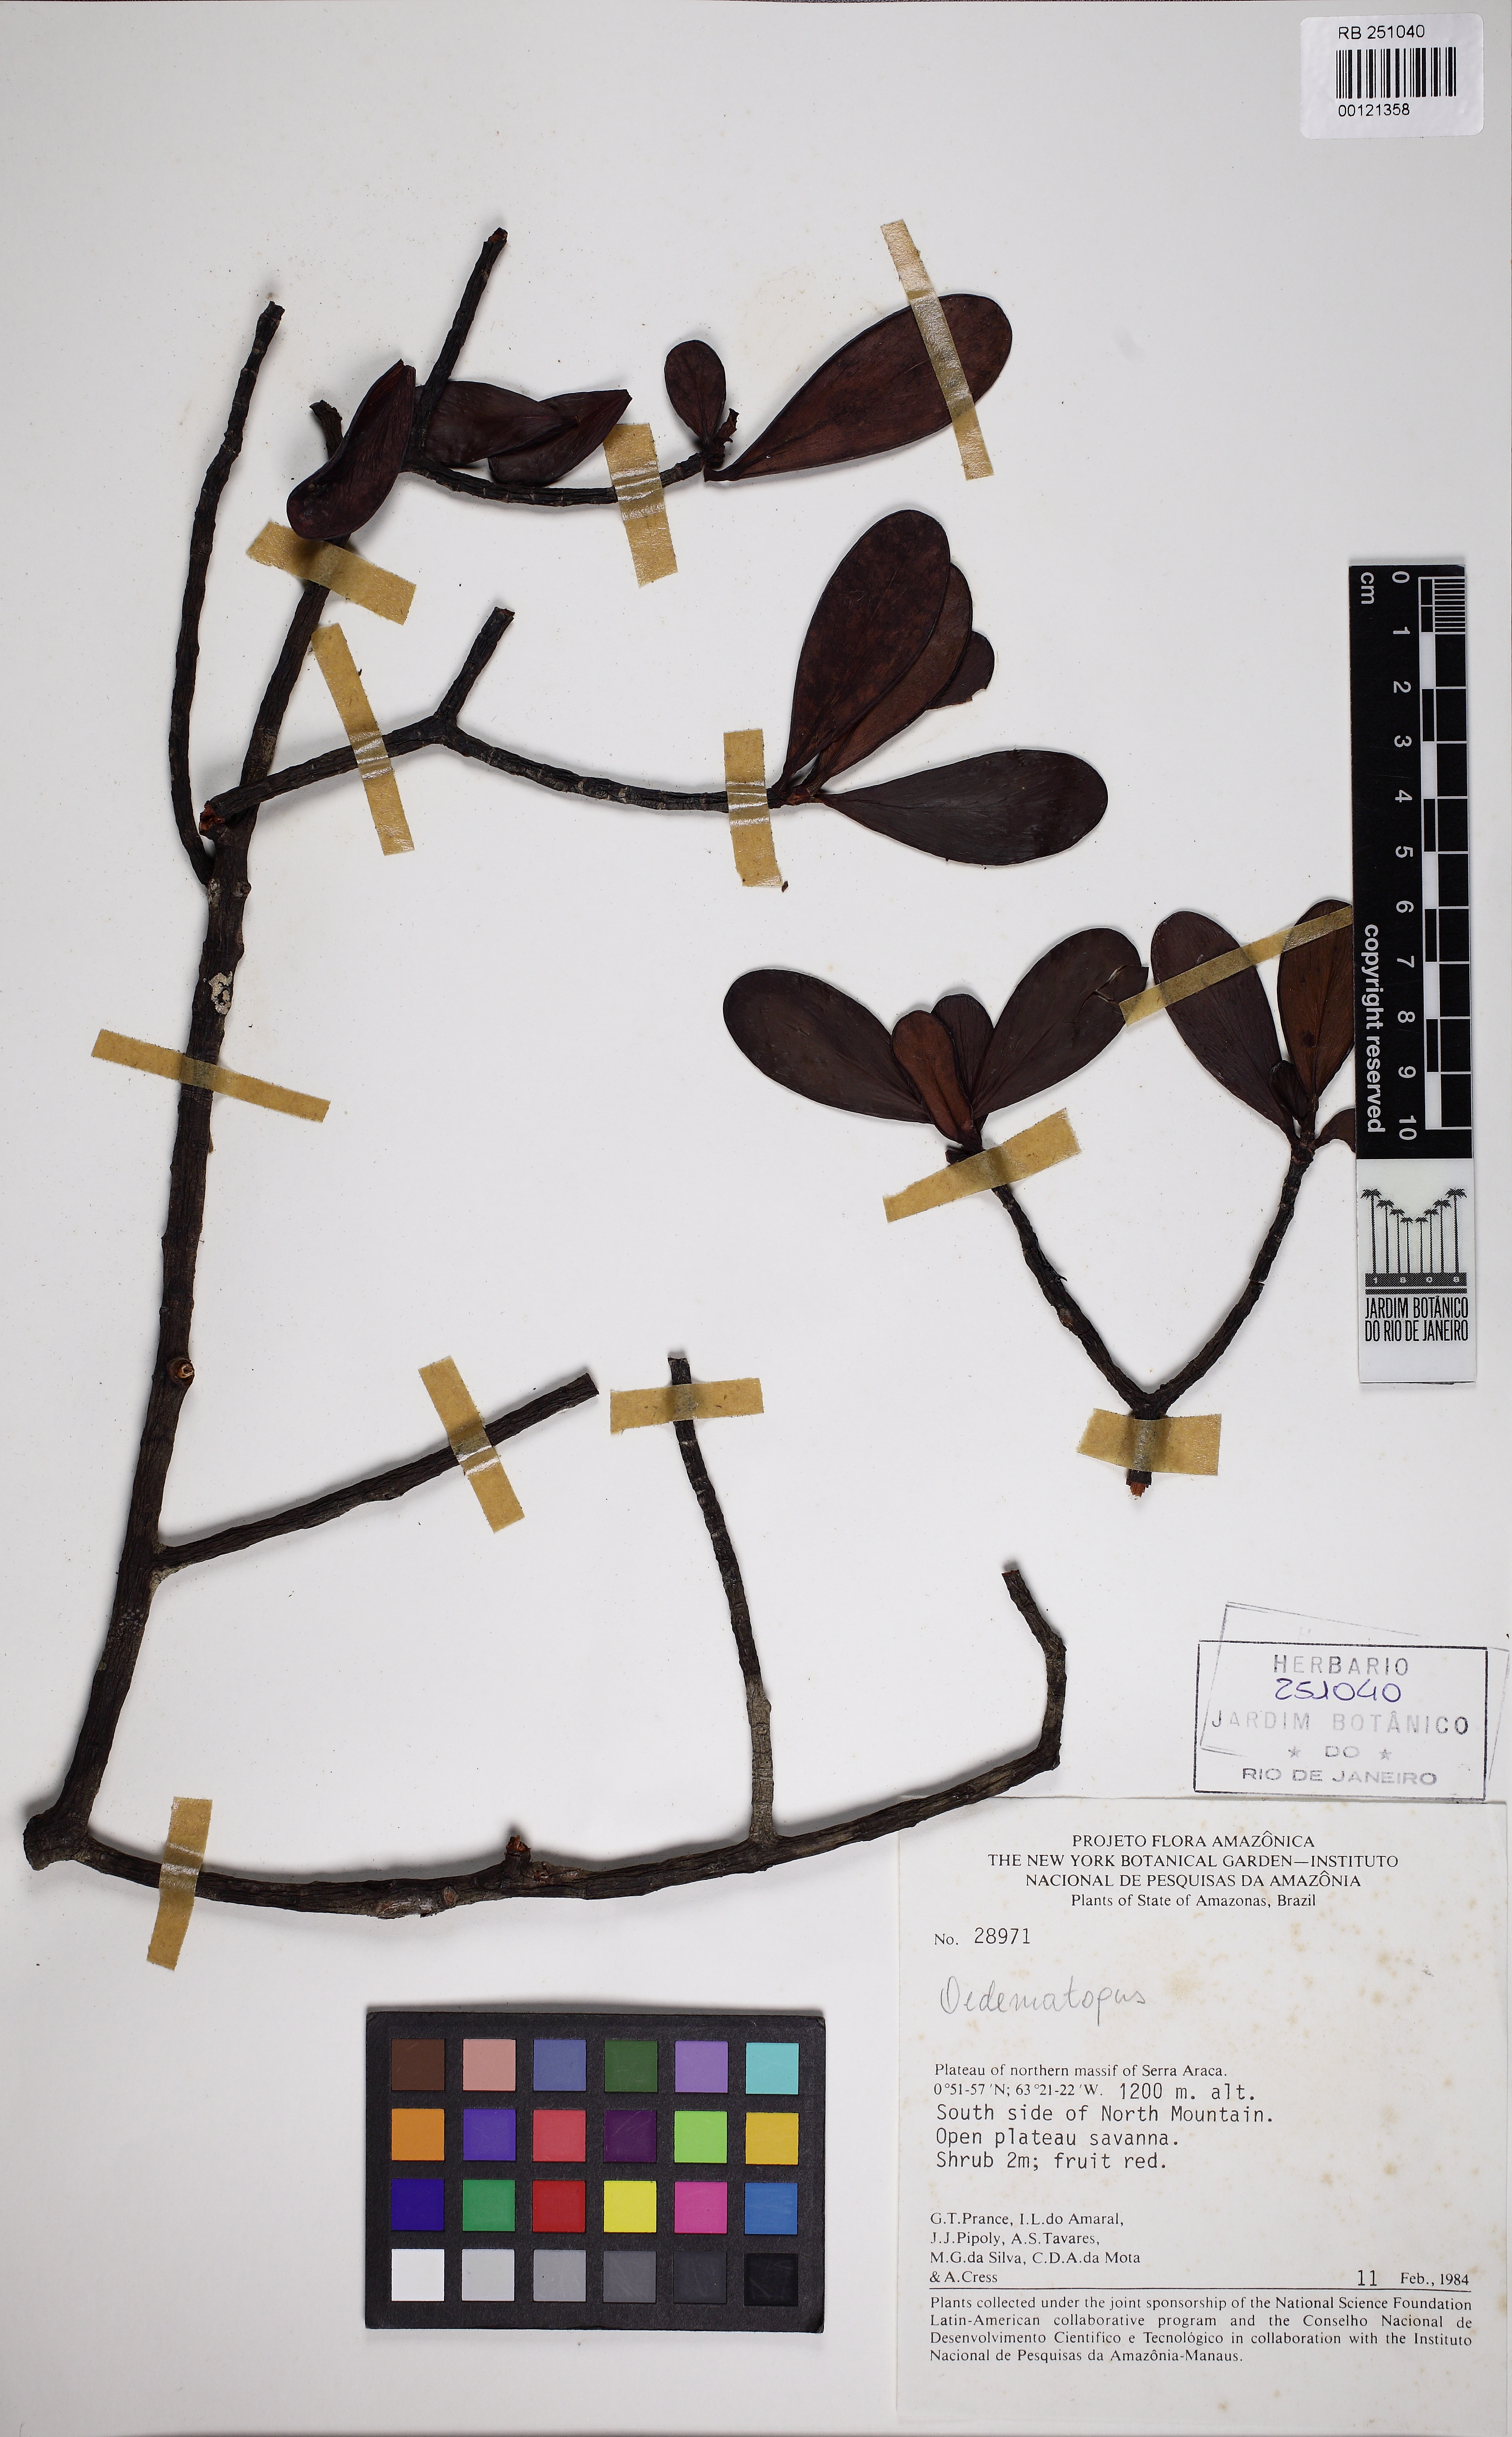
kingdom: Plantae
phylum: Tracheophyta
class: Magnoliopsida
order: Malpighiales
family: Clusiaceae
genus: Clusia
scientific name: Clusia huberi
